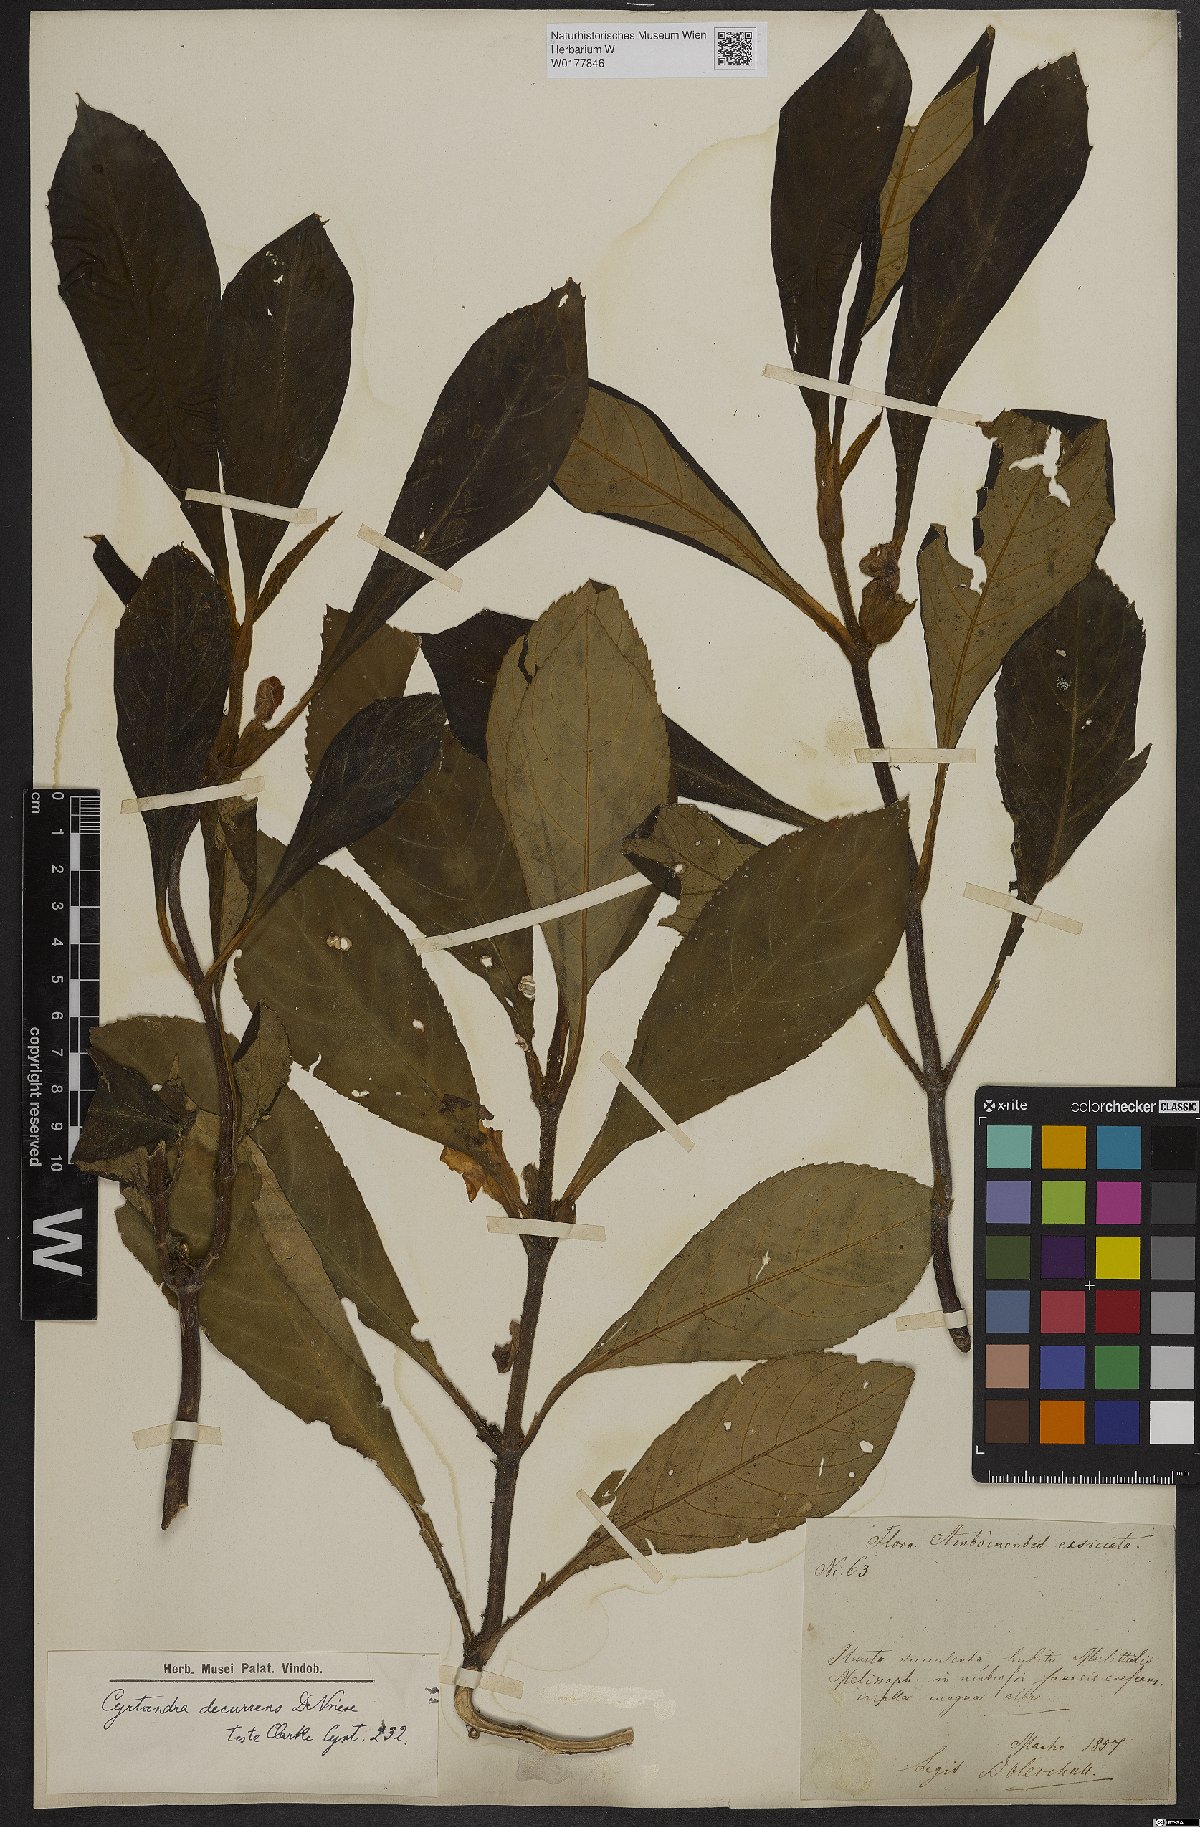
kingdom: Plantae
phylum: Tracheophyta
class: Magnoliopsida
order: Lamiales
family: Gesneriaceae
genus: Cyrtandra
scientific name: Cyrtandra decurrens
